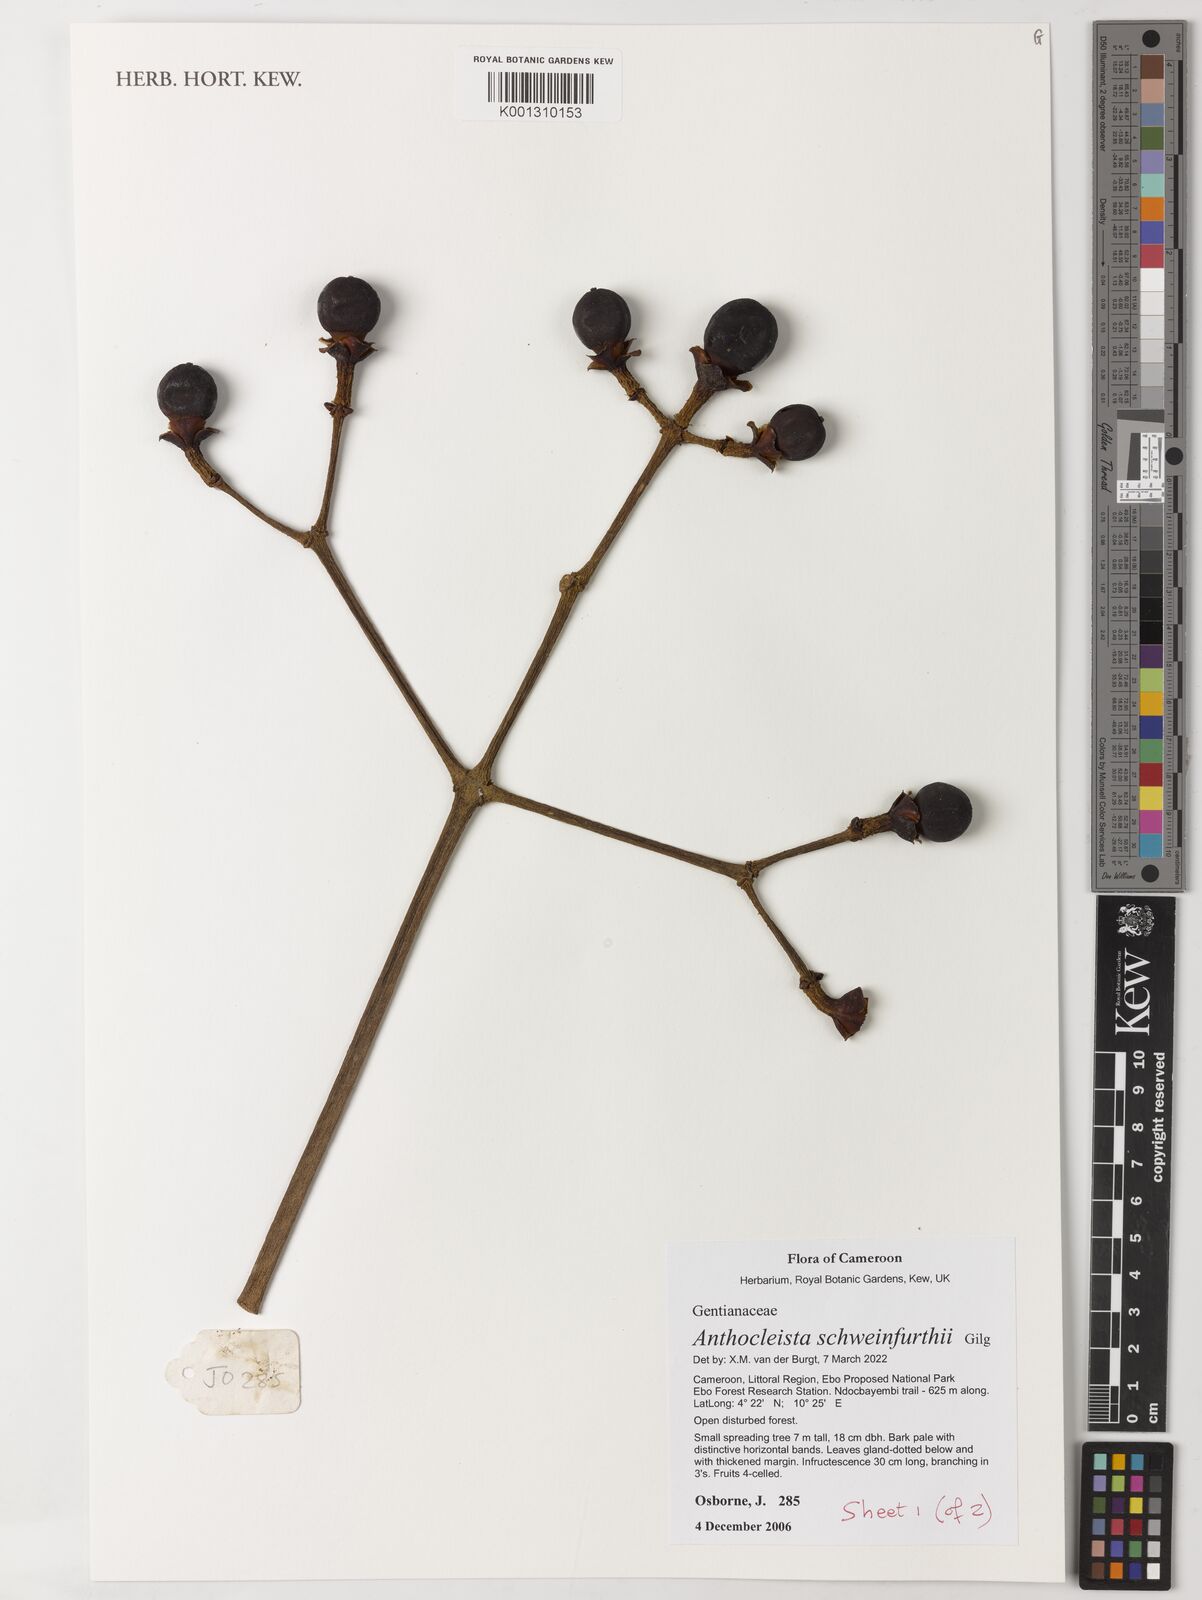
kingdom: Plantae
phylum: Tracheophyta
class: Magnoliopsida
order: Gentianales
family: Gentianaceae
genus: Anthocleista
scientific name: Anthocleista schweinfurthii
